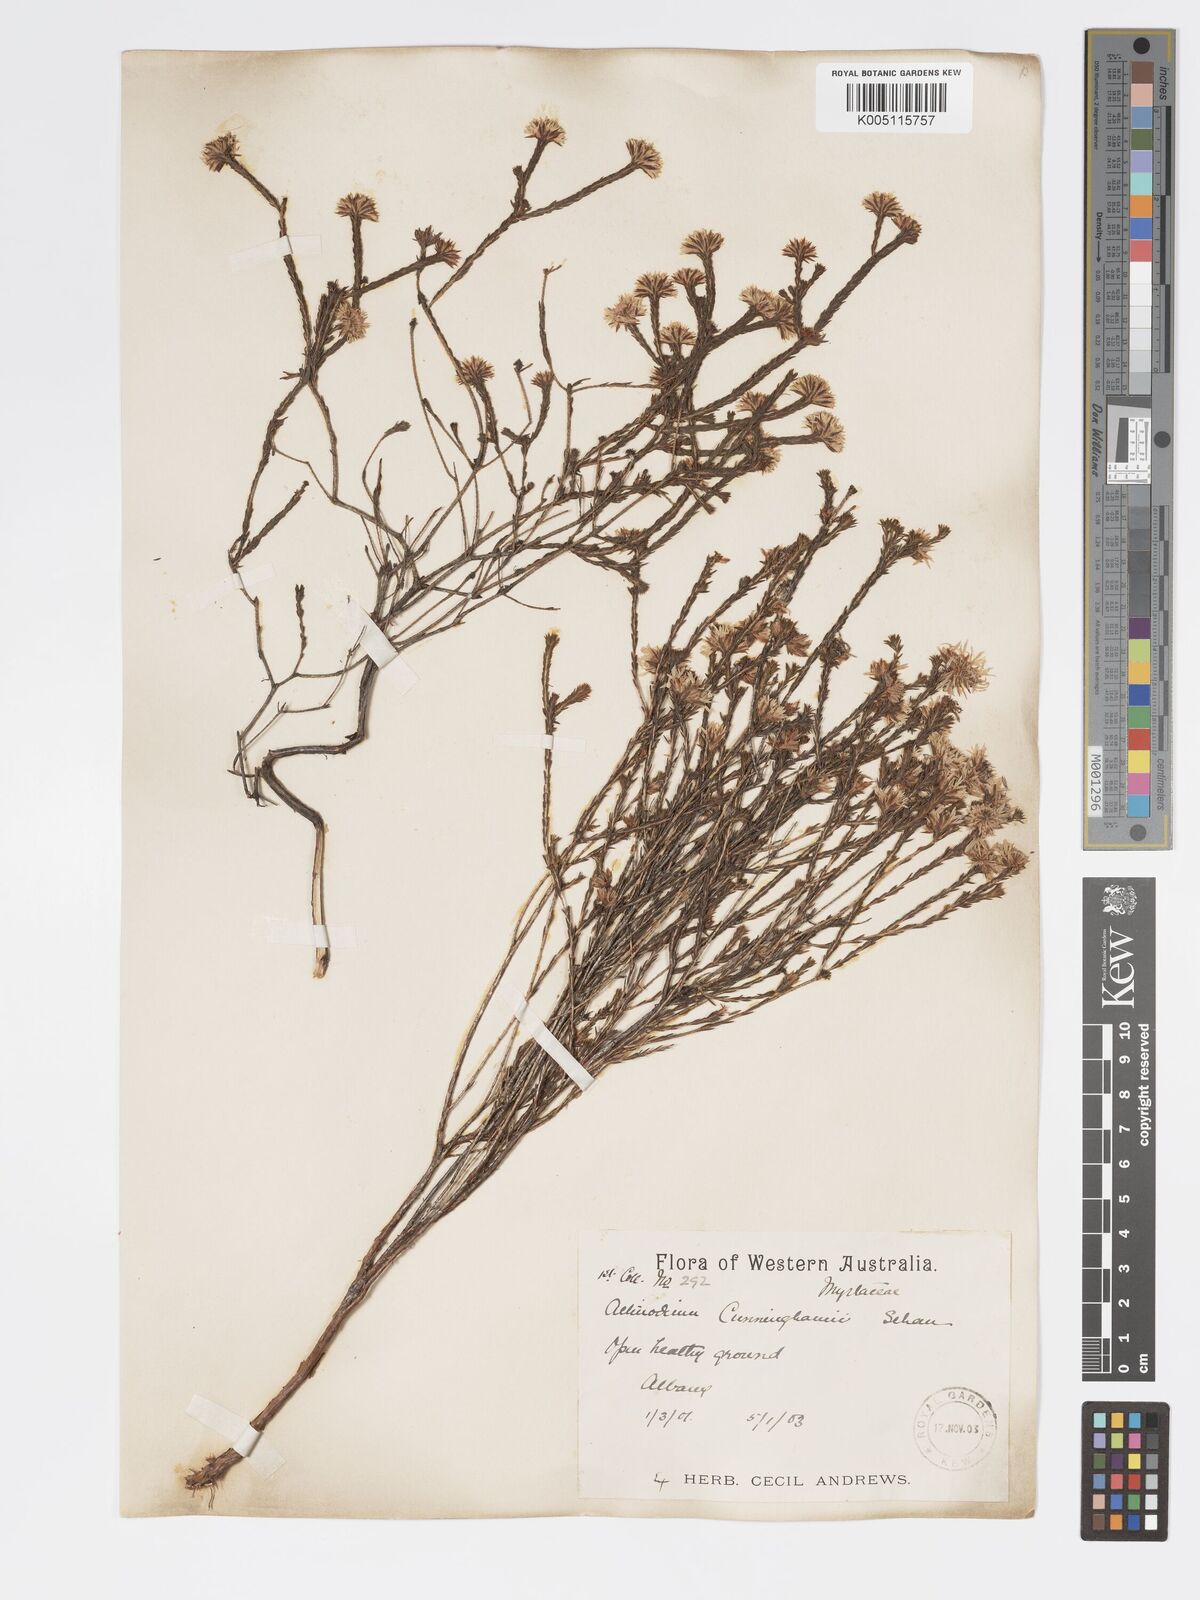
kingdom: Plantae
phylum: Tracheophyta
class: Magnoliopsida
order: Myrtales
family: Myrtaceae
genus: Actinodium
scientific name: Actinodium cunninghamii
